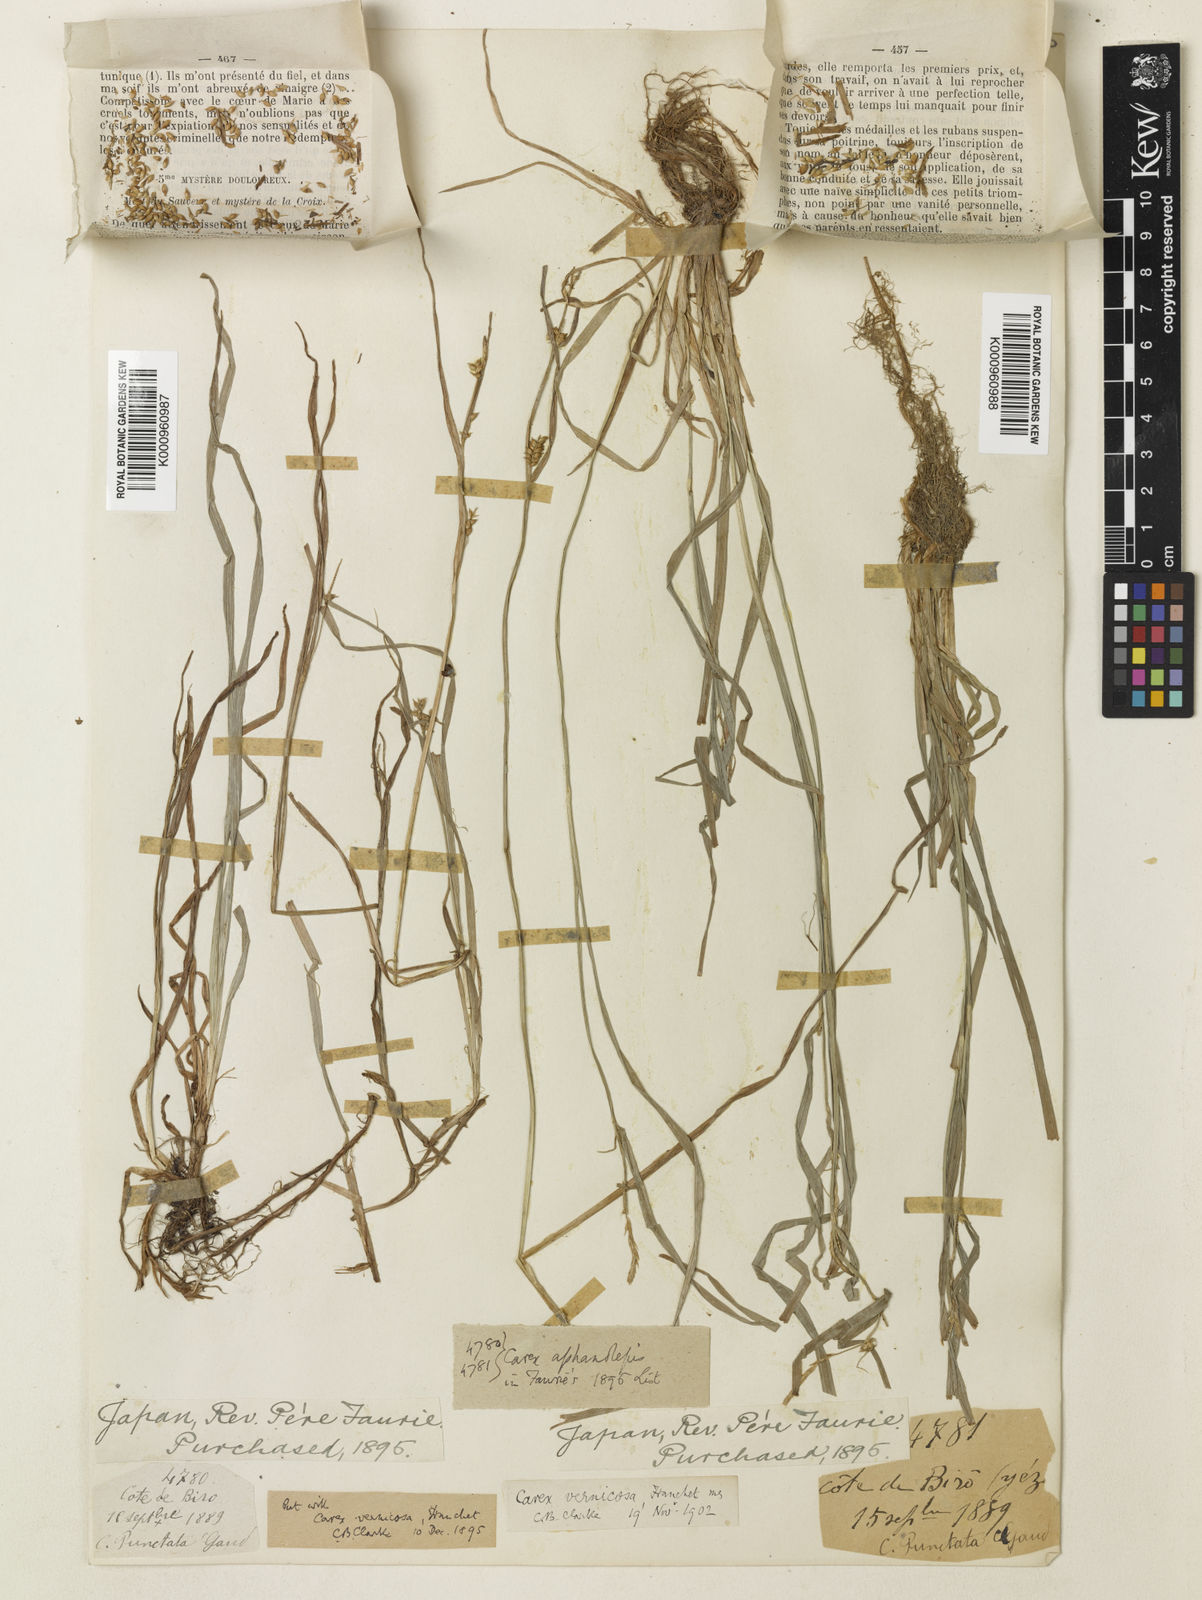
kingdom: Plantae
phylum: Tracheophyta
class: Liliopsida
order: Poales
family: Cyperaceae
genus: Carex
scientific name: Carex aphanolepis
